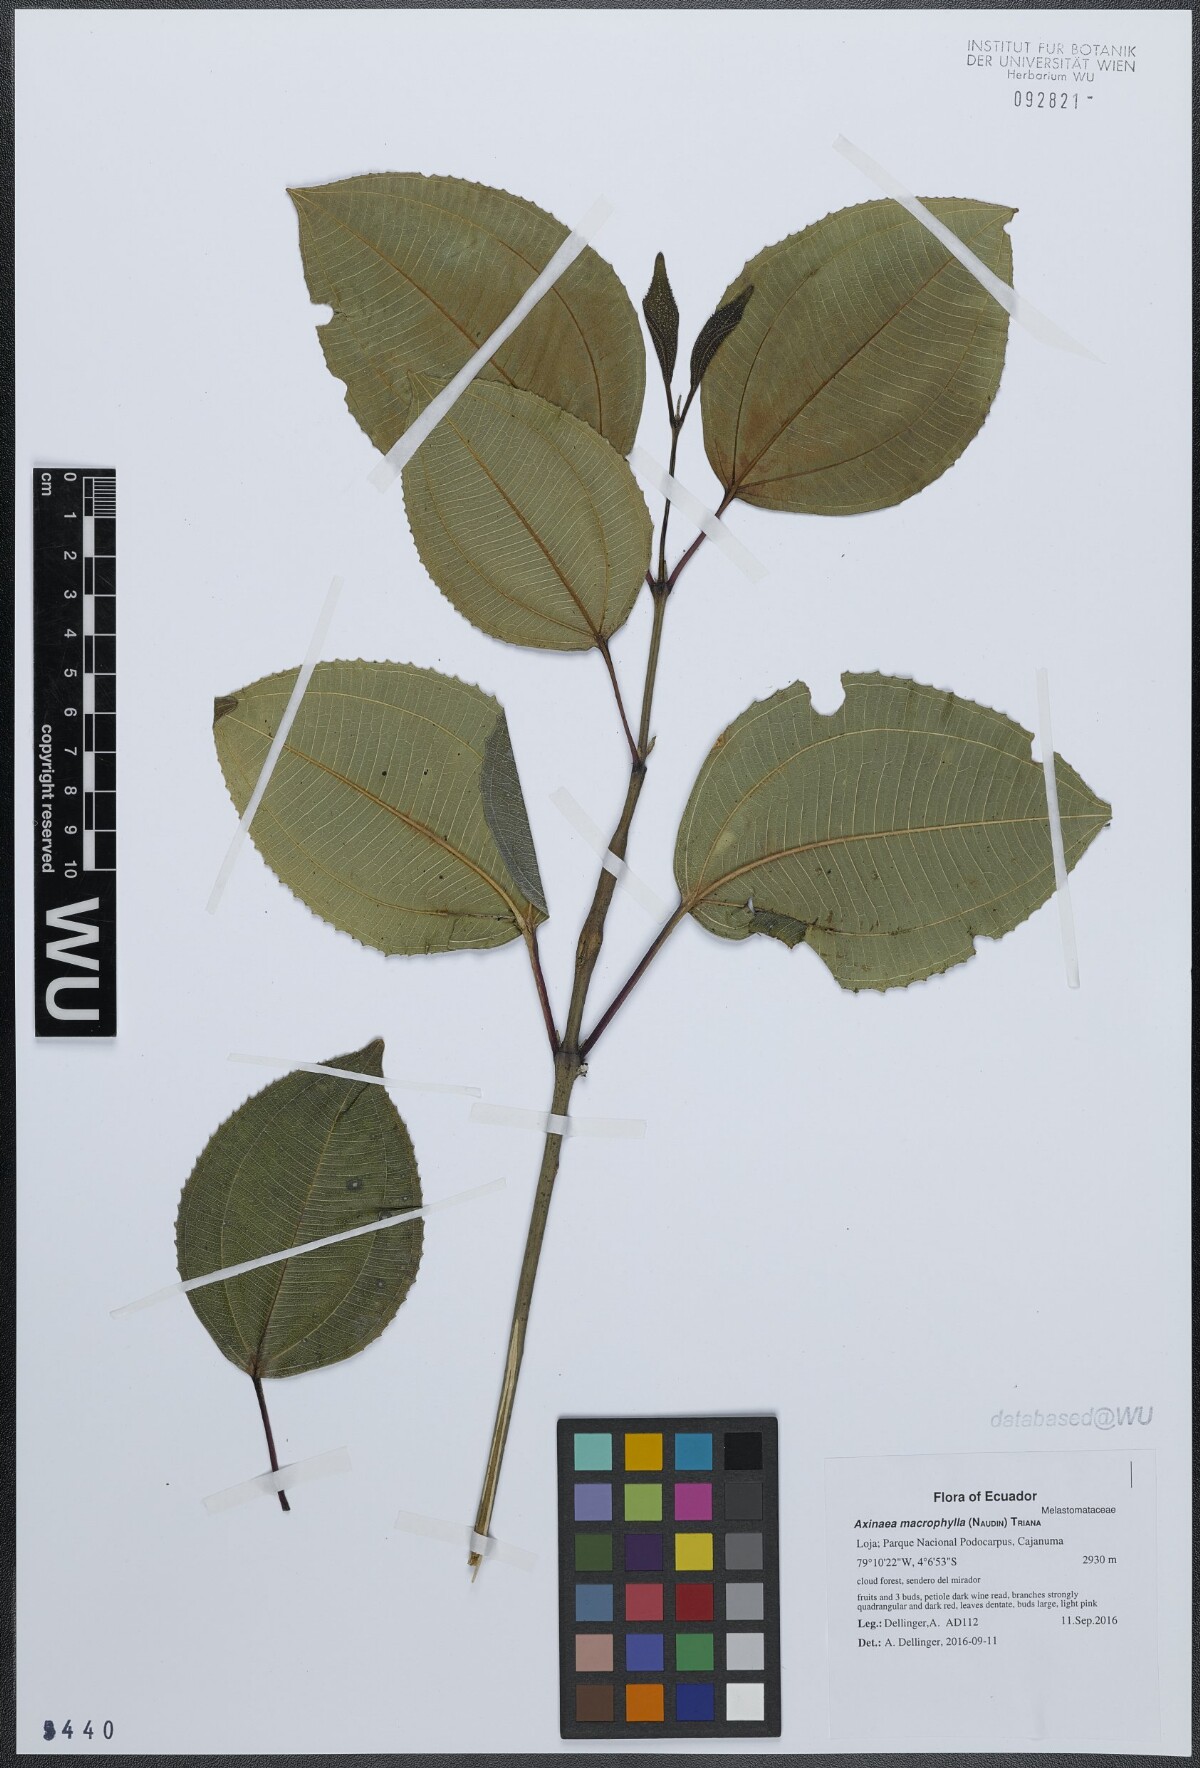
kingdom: Plantae
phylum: Tracheophyta
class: Magnoliopsida
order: Myrtales
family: Melastomataceae
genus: Axinaea
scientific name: Axinaea macrophylla
